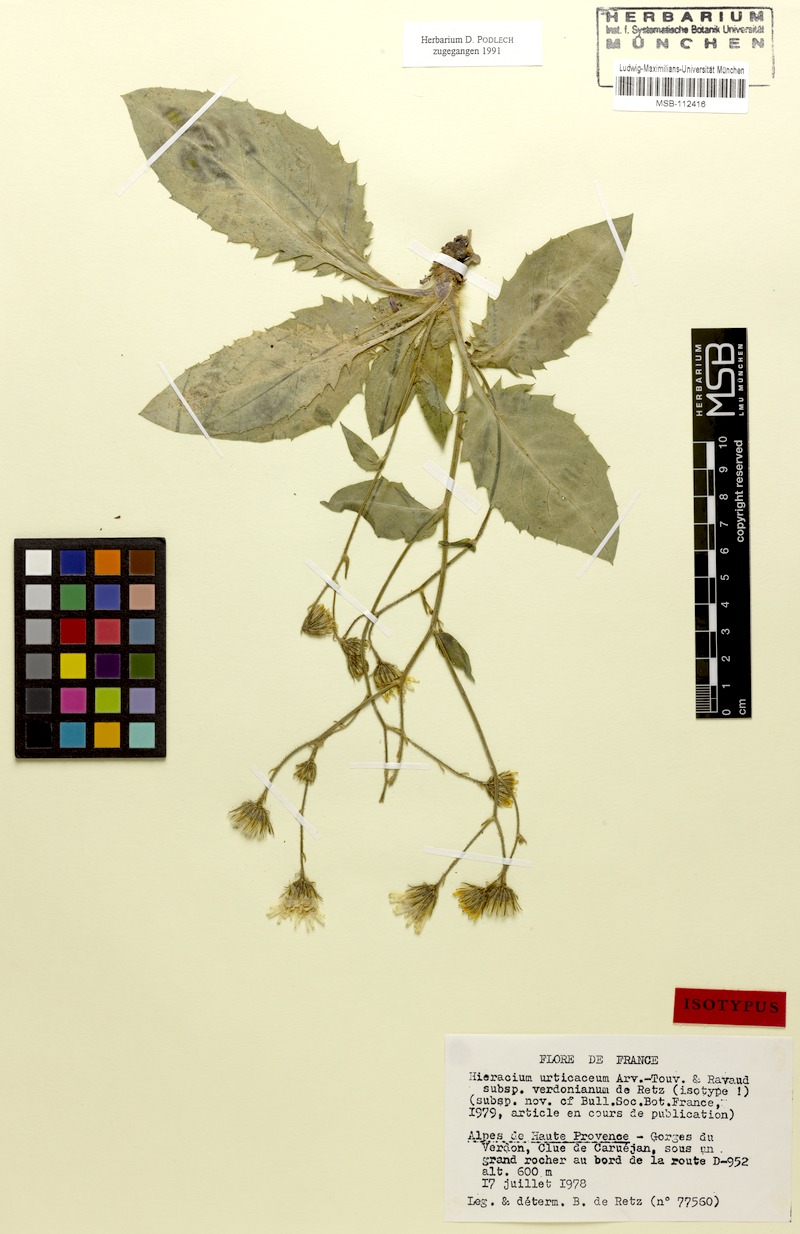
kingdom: Plantae
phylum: Tracheophyta
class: Magnoliopsida
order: Asterales
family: Asteraceae
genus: Hieracium
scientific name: Hieracium urticaceum
